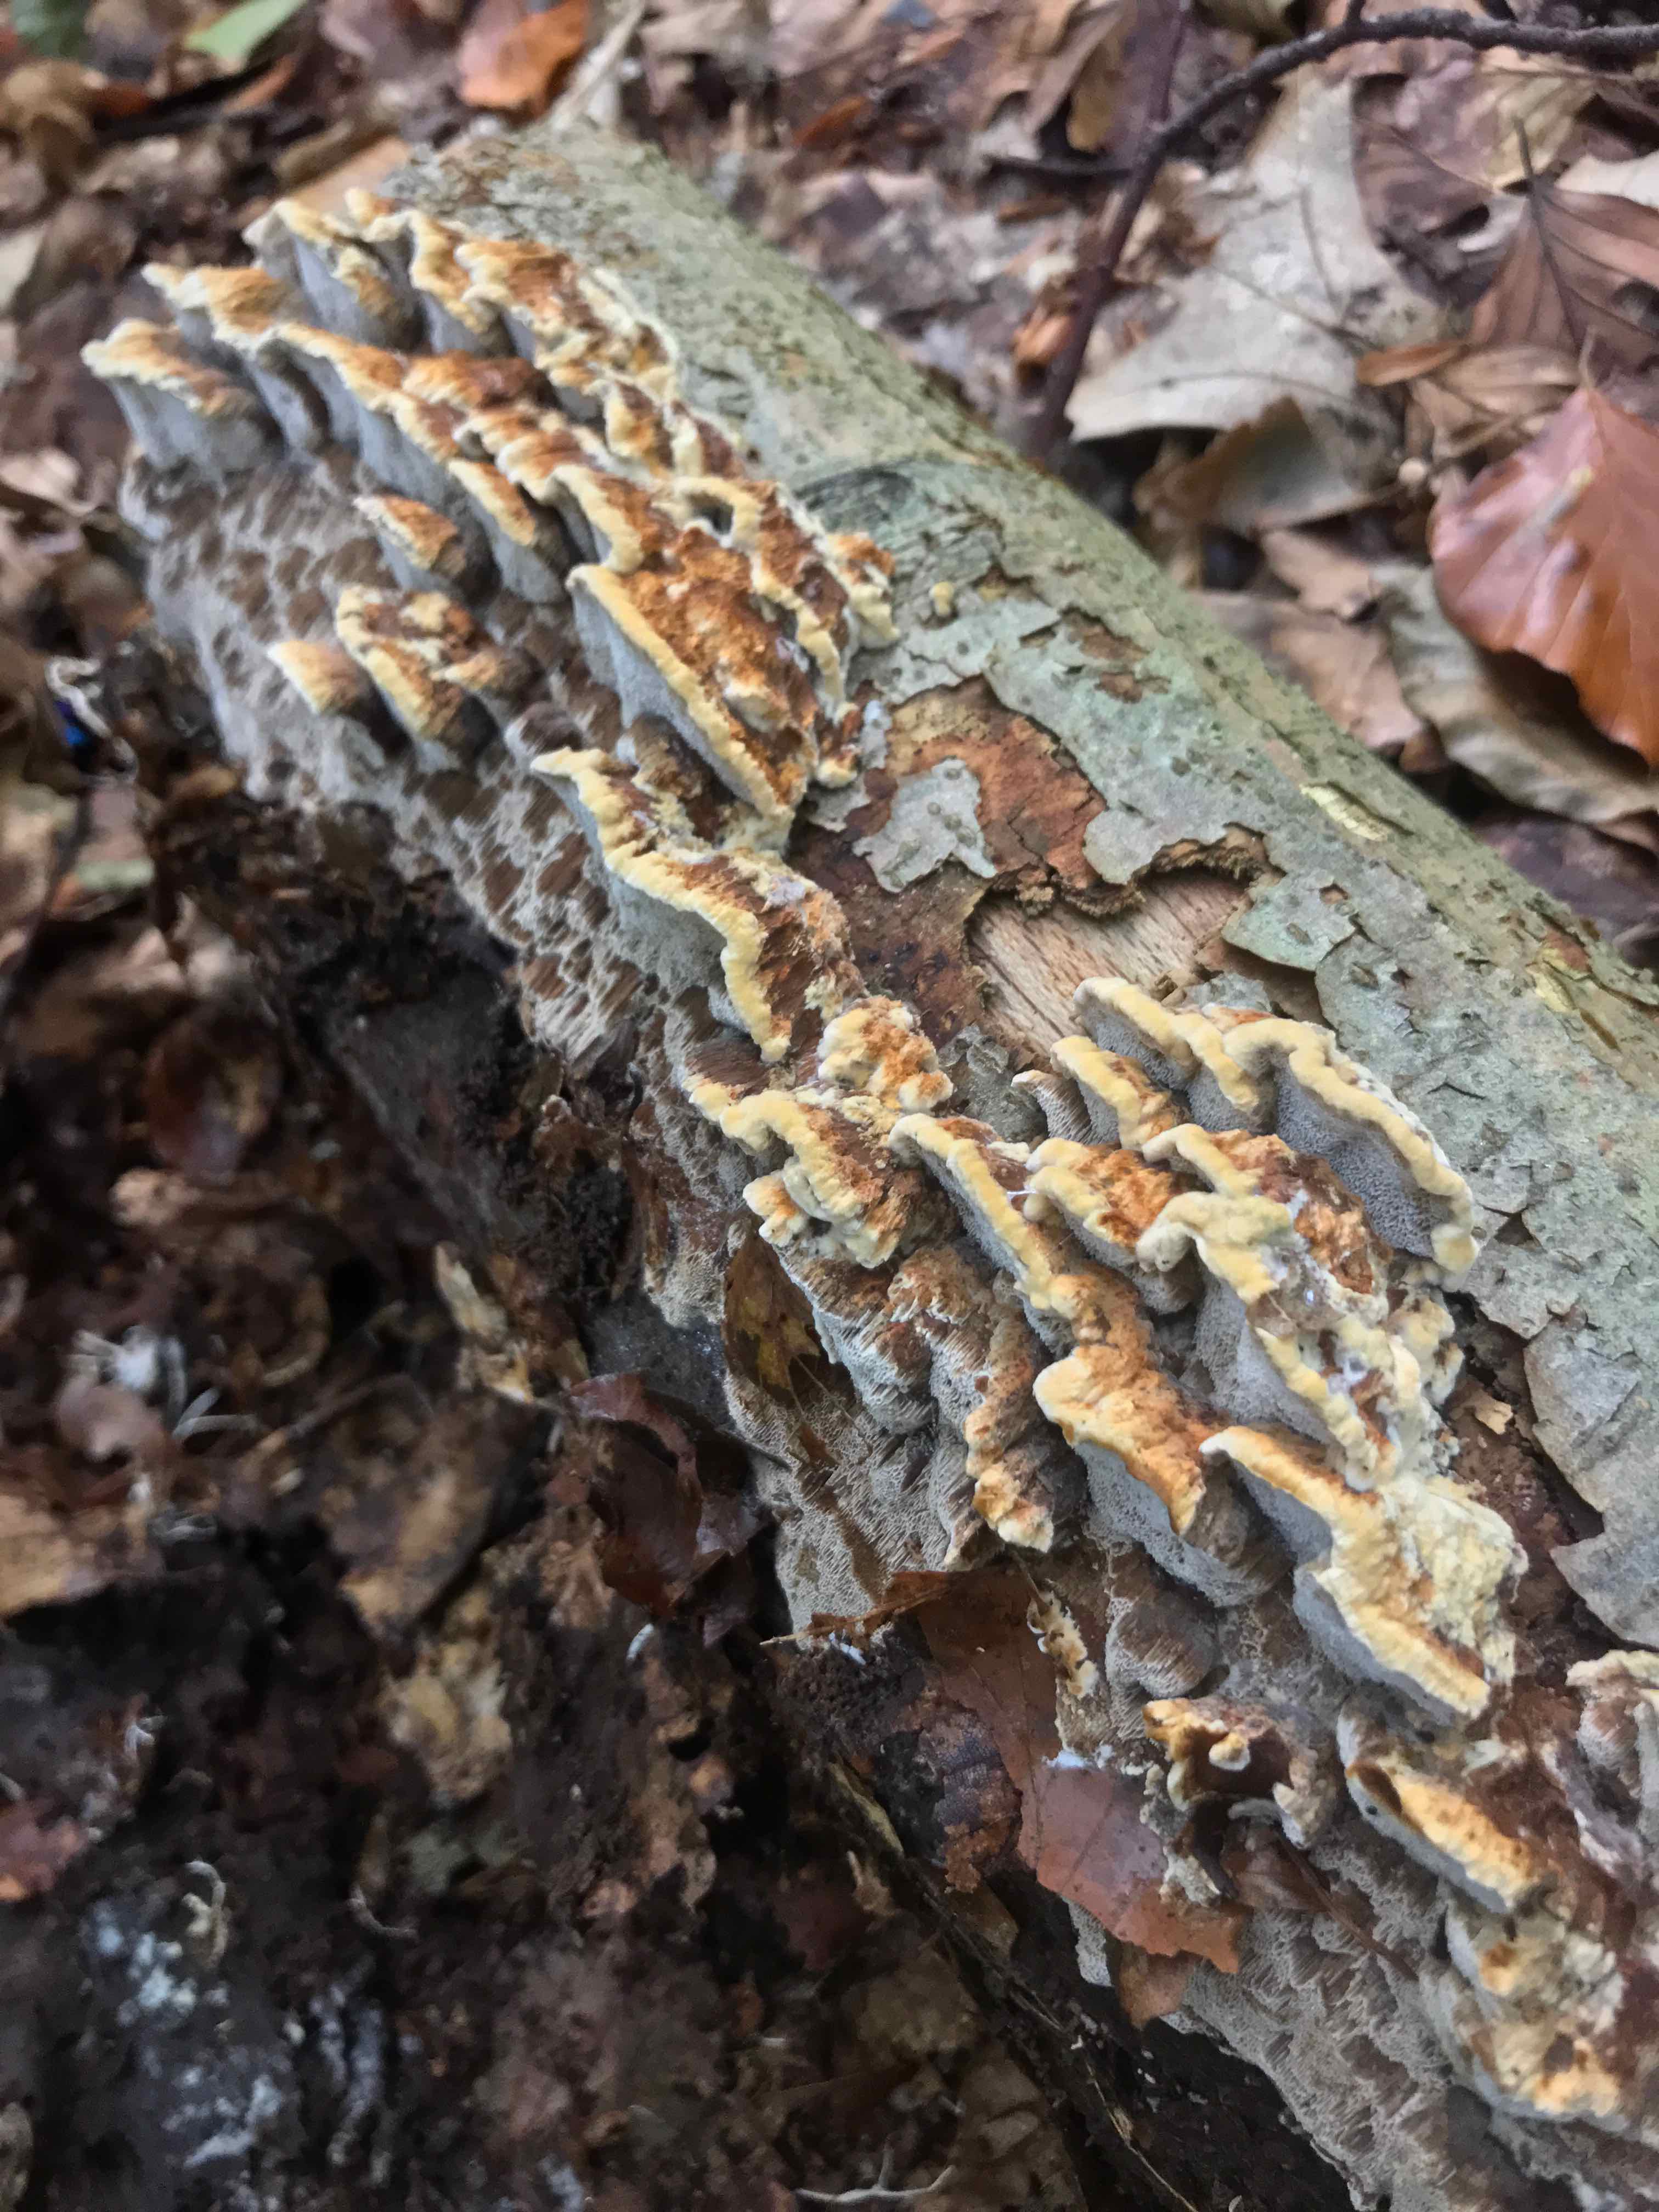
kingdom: Fungi
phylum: Basidiomycota
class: Agaricomycetes
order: Hymenochaetales
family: Hymenochaetaceae
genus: Mensularia
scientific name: Mensularia nodulosa
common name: bøge-spejlporesvamp
